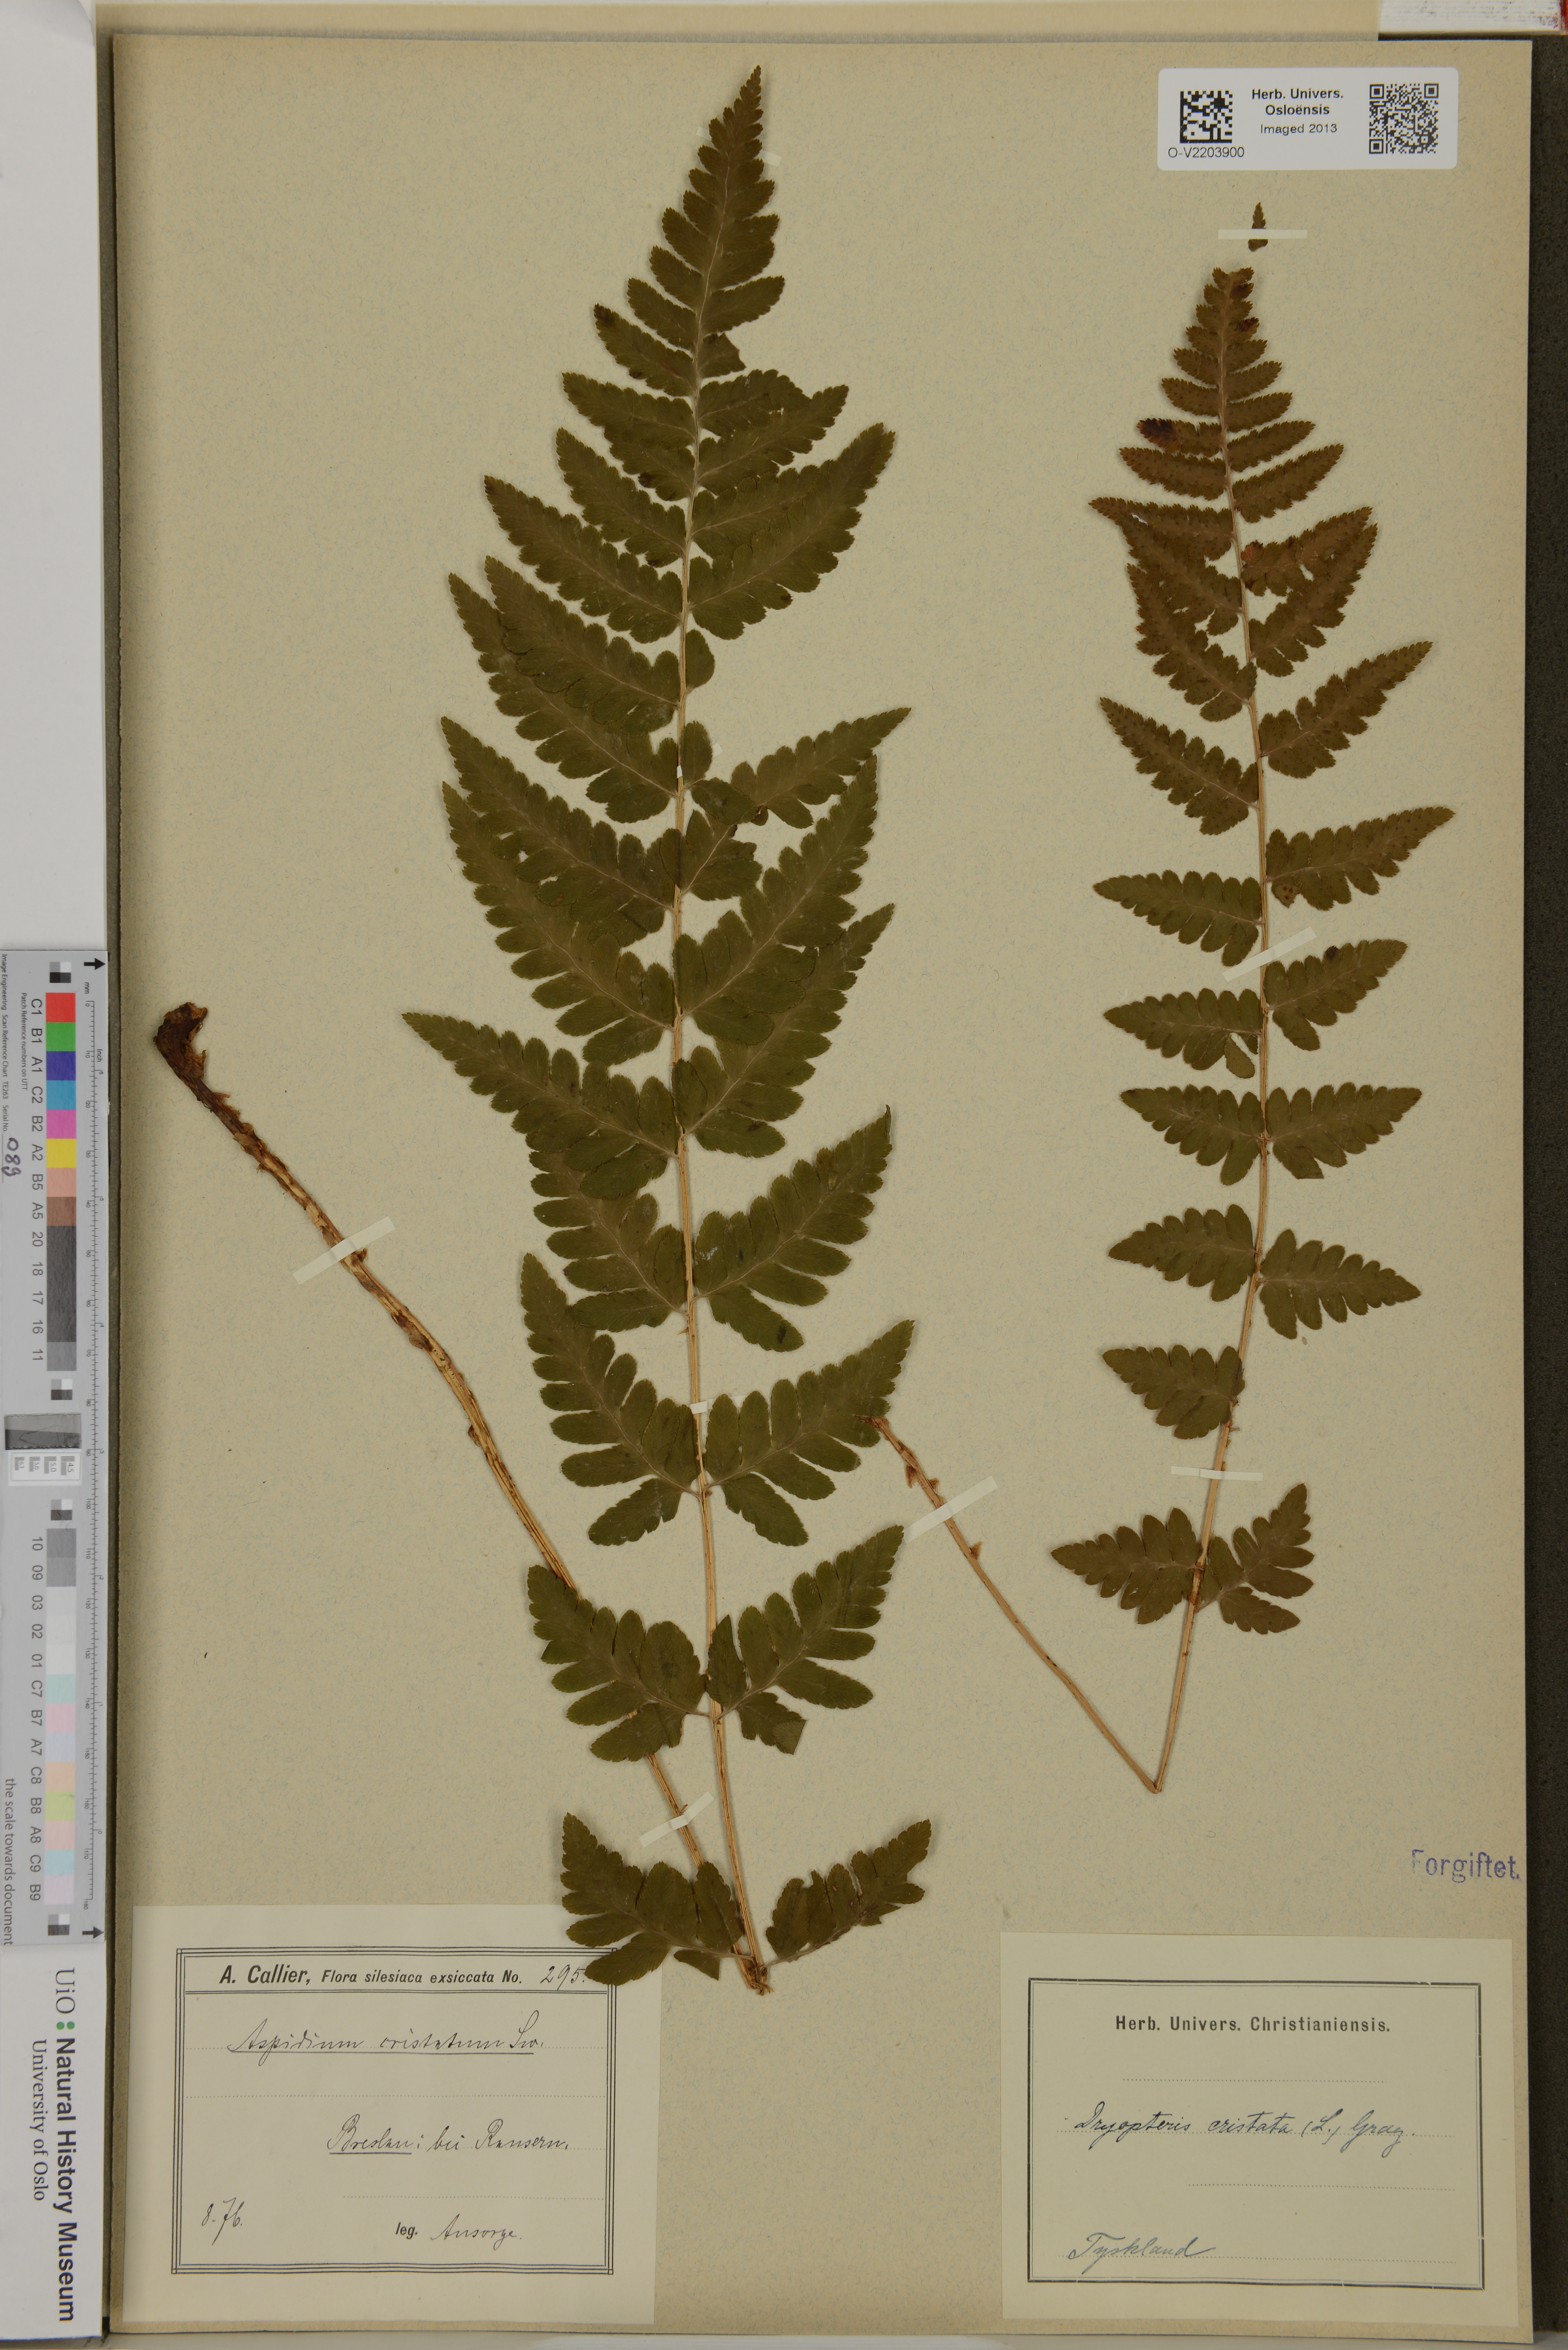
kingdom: Plantae
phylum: Tracheophyta
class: Polypodiopsida
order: Polypodiales
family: Dryopteridaceae
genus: Dryopteris
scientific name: Dryopteris cristata
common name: Crested wood fern
